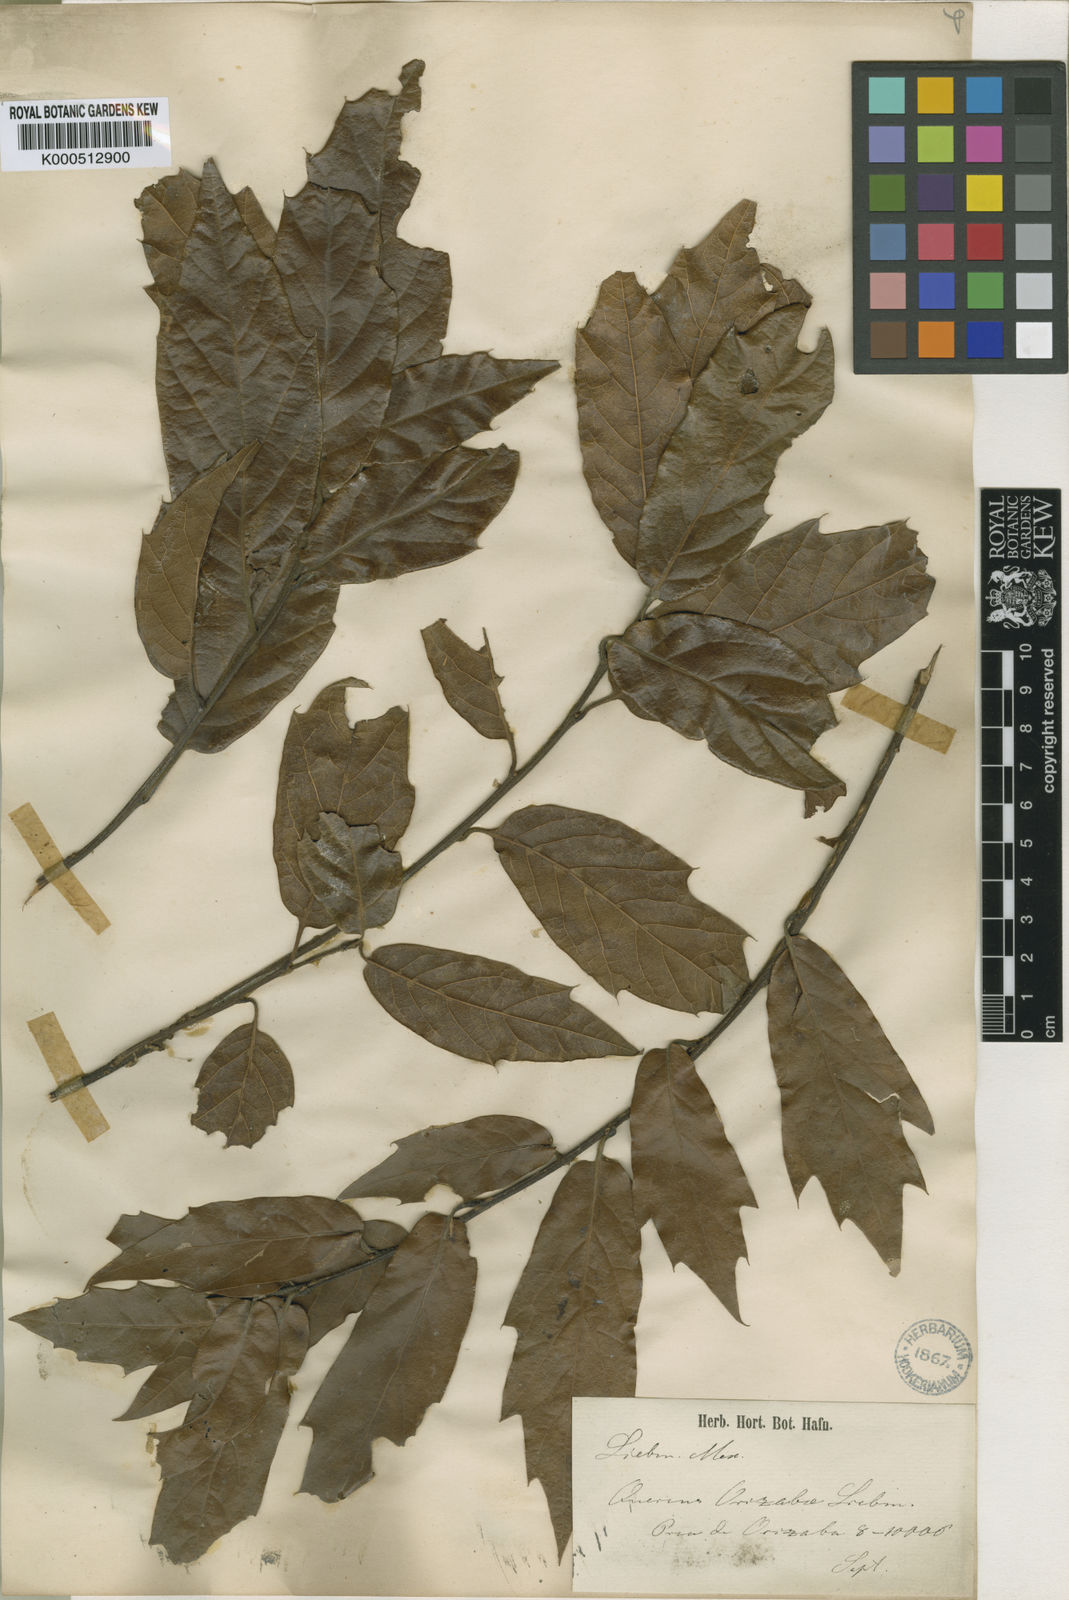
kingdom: Plantae
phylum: Tracheophyta
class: Magnoliopsida
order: Fagales
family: Fagaceae
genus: Quercus
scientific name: Quercus laurina
